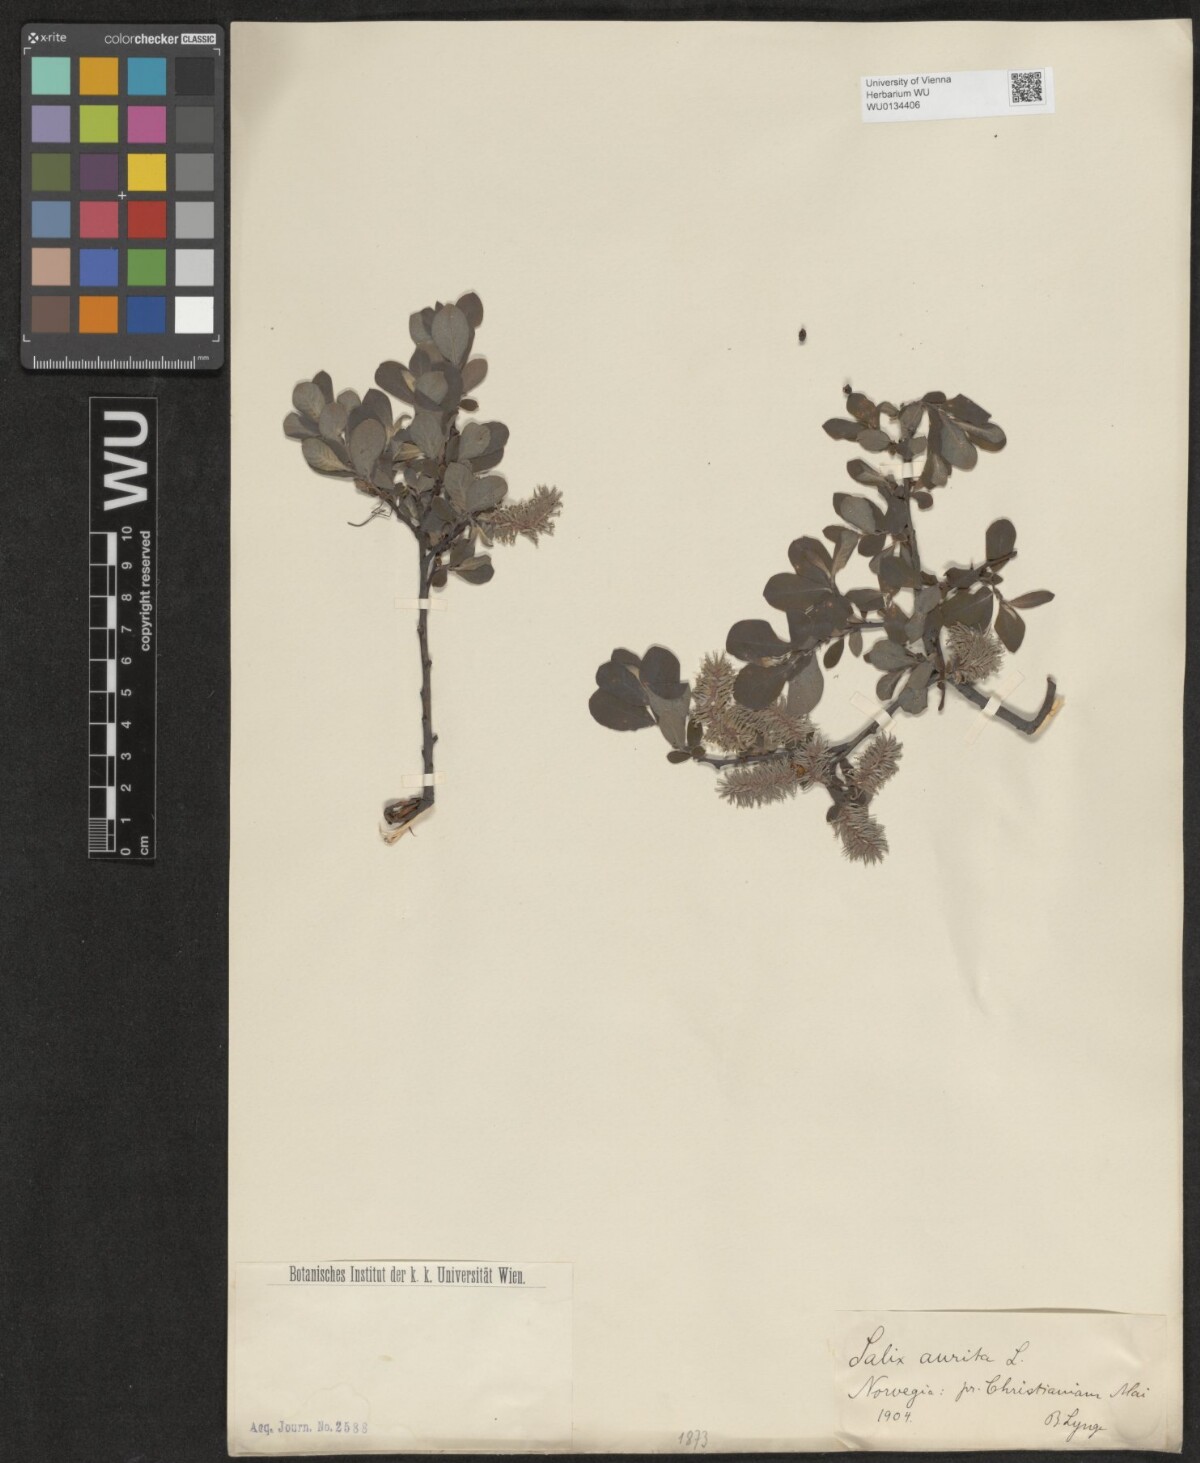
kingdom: Plantae
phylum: Tracheophyta
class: Magnoliopsida
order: Malpighiales
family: Salicaceae
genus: Salix
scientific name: Salix aurita
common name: Eared willow
